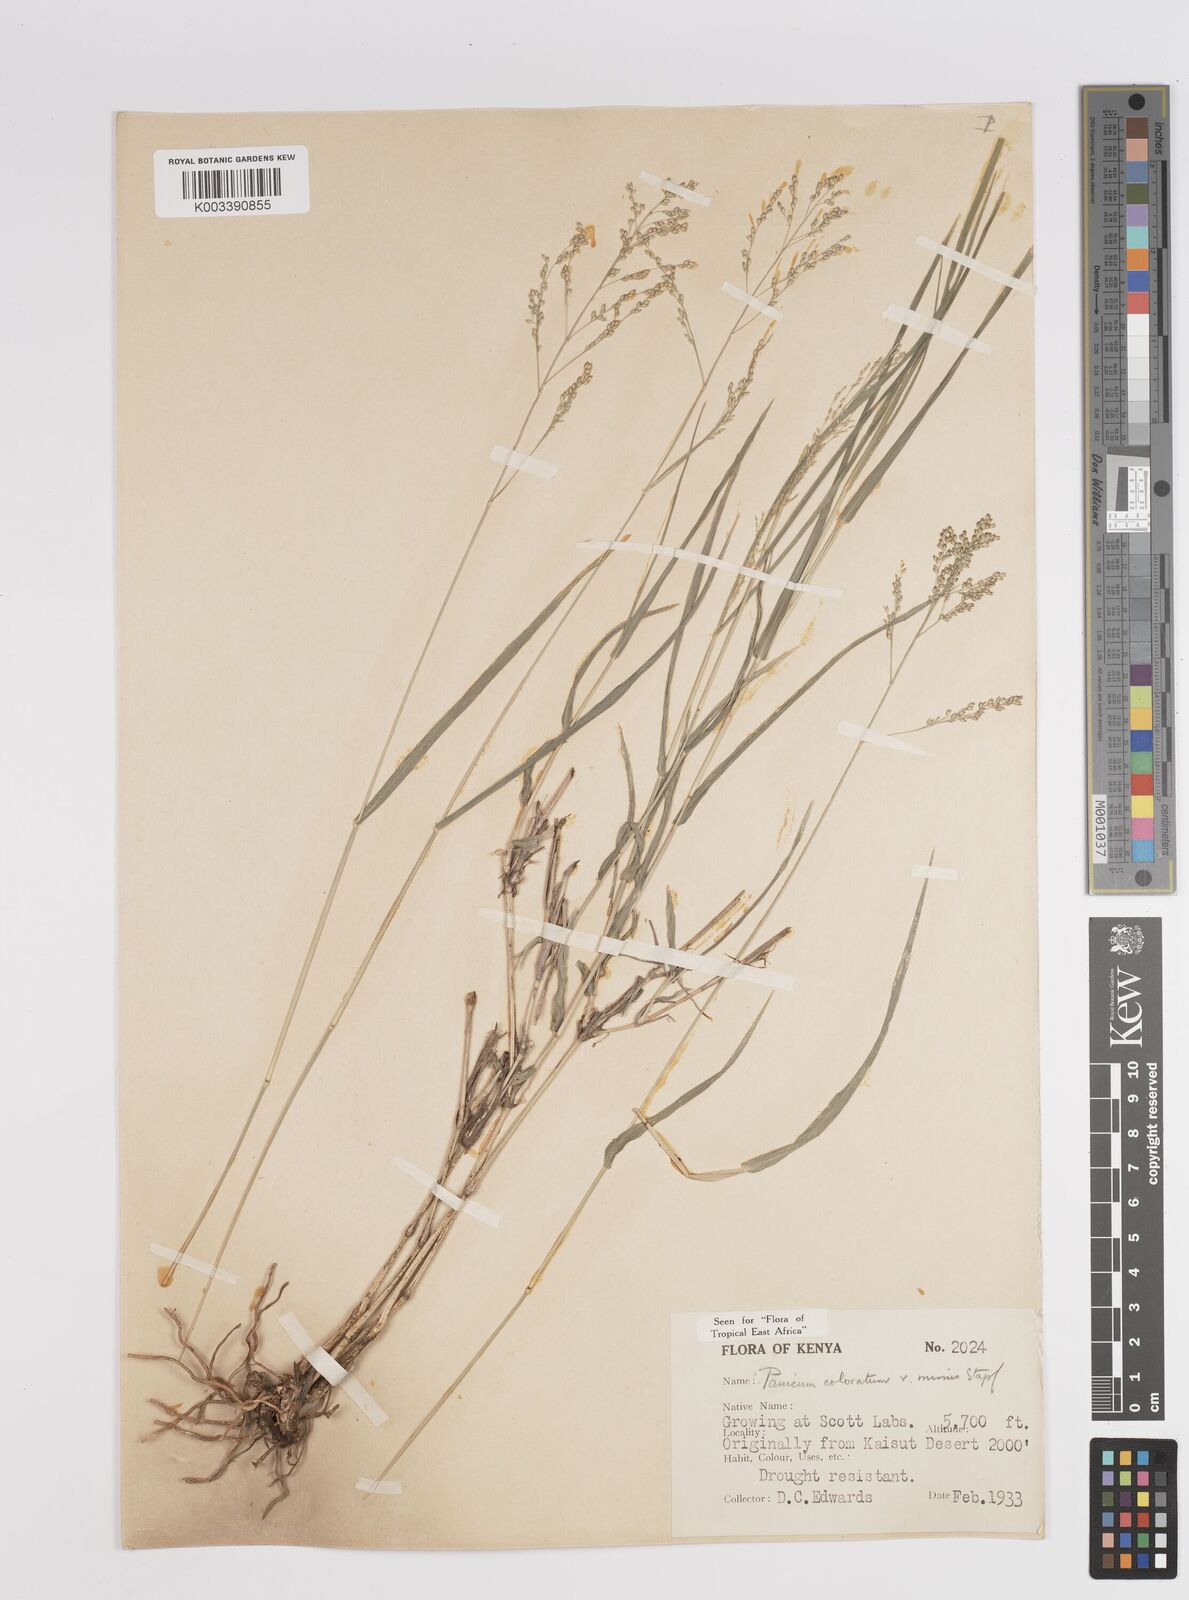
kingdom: Plantae
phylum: Tracheophyta
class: Liliopsida
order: Poales
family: Poaceae
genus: Panicum
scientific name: Panicum coloratum
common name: Kleingrass
